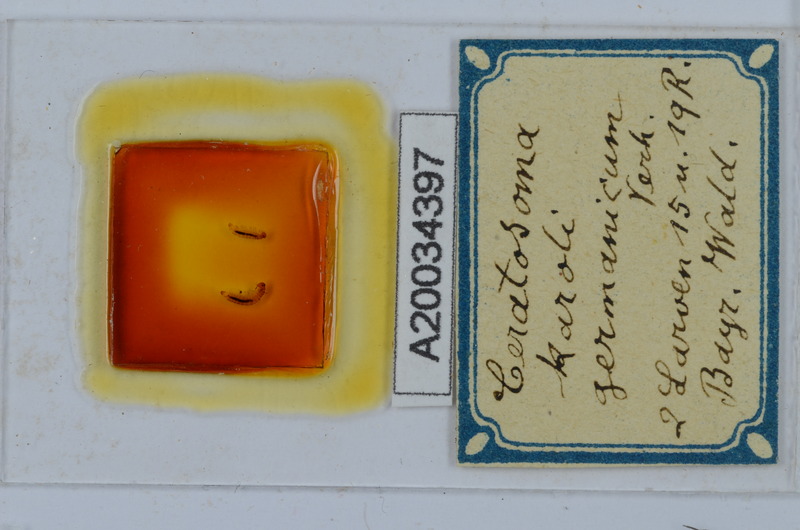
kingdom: Animalia
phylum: Arthropoda
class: Diplopoda
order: Chordeumatida
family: Craspedosomatidae
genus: Ochogona
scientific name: Ochogona caroli
